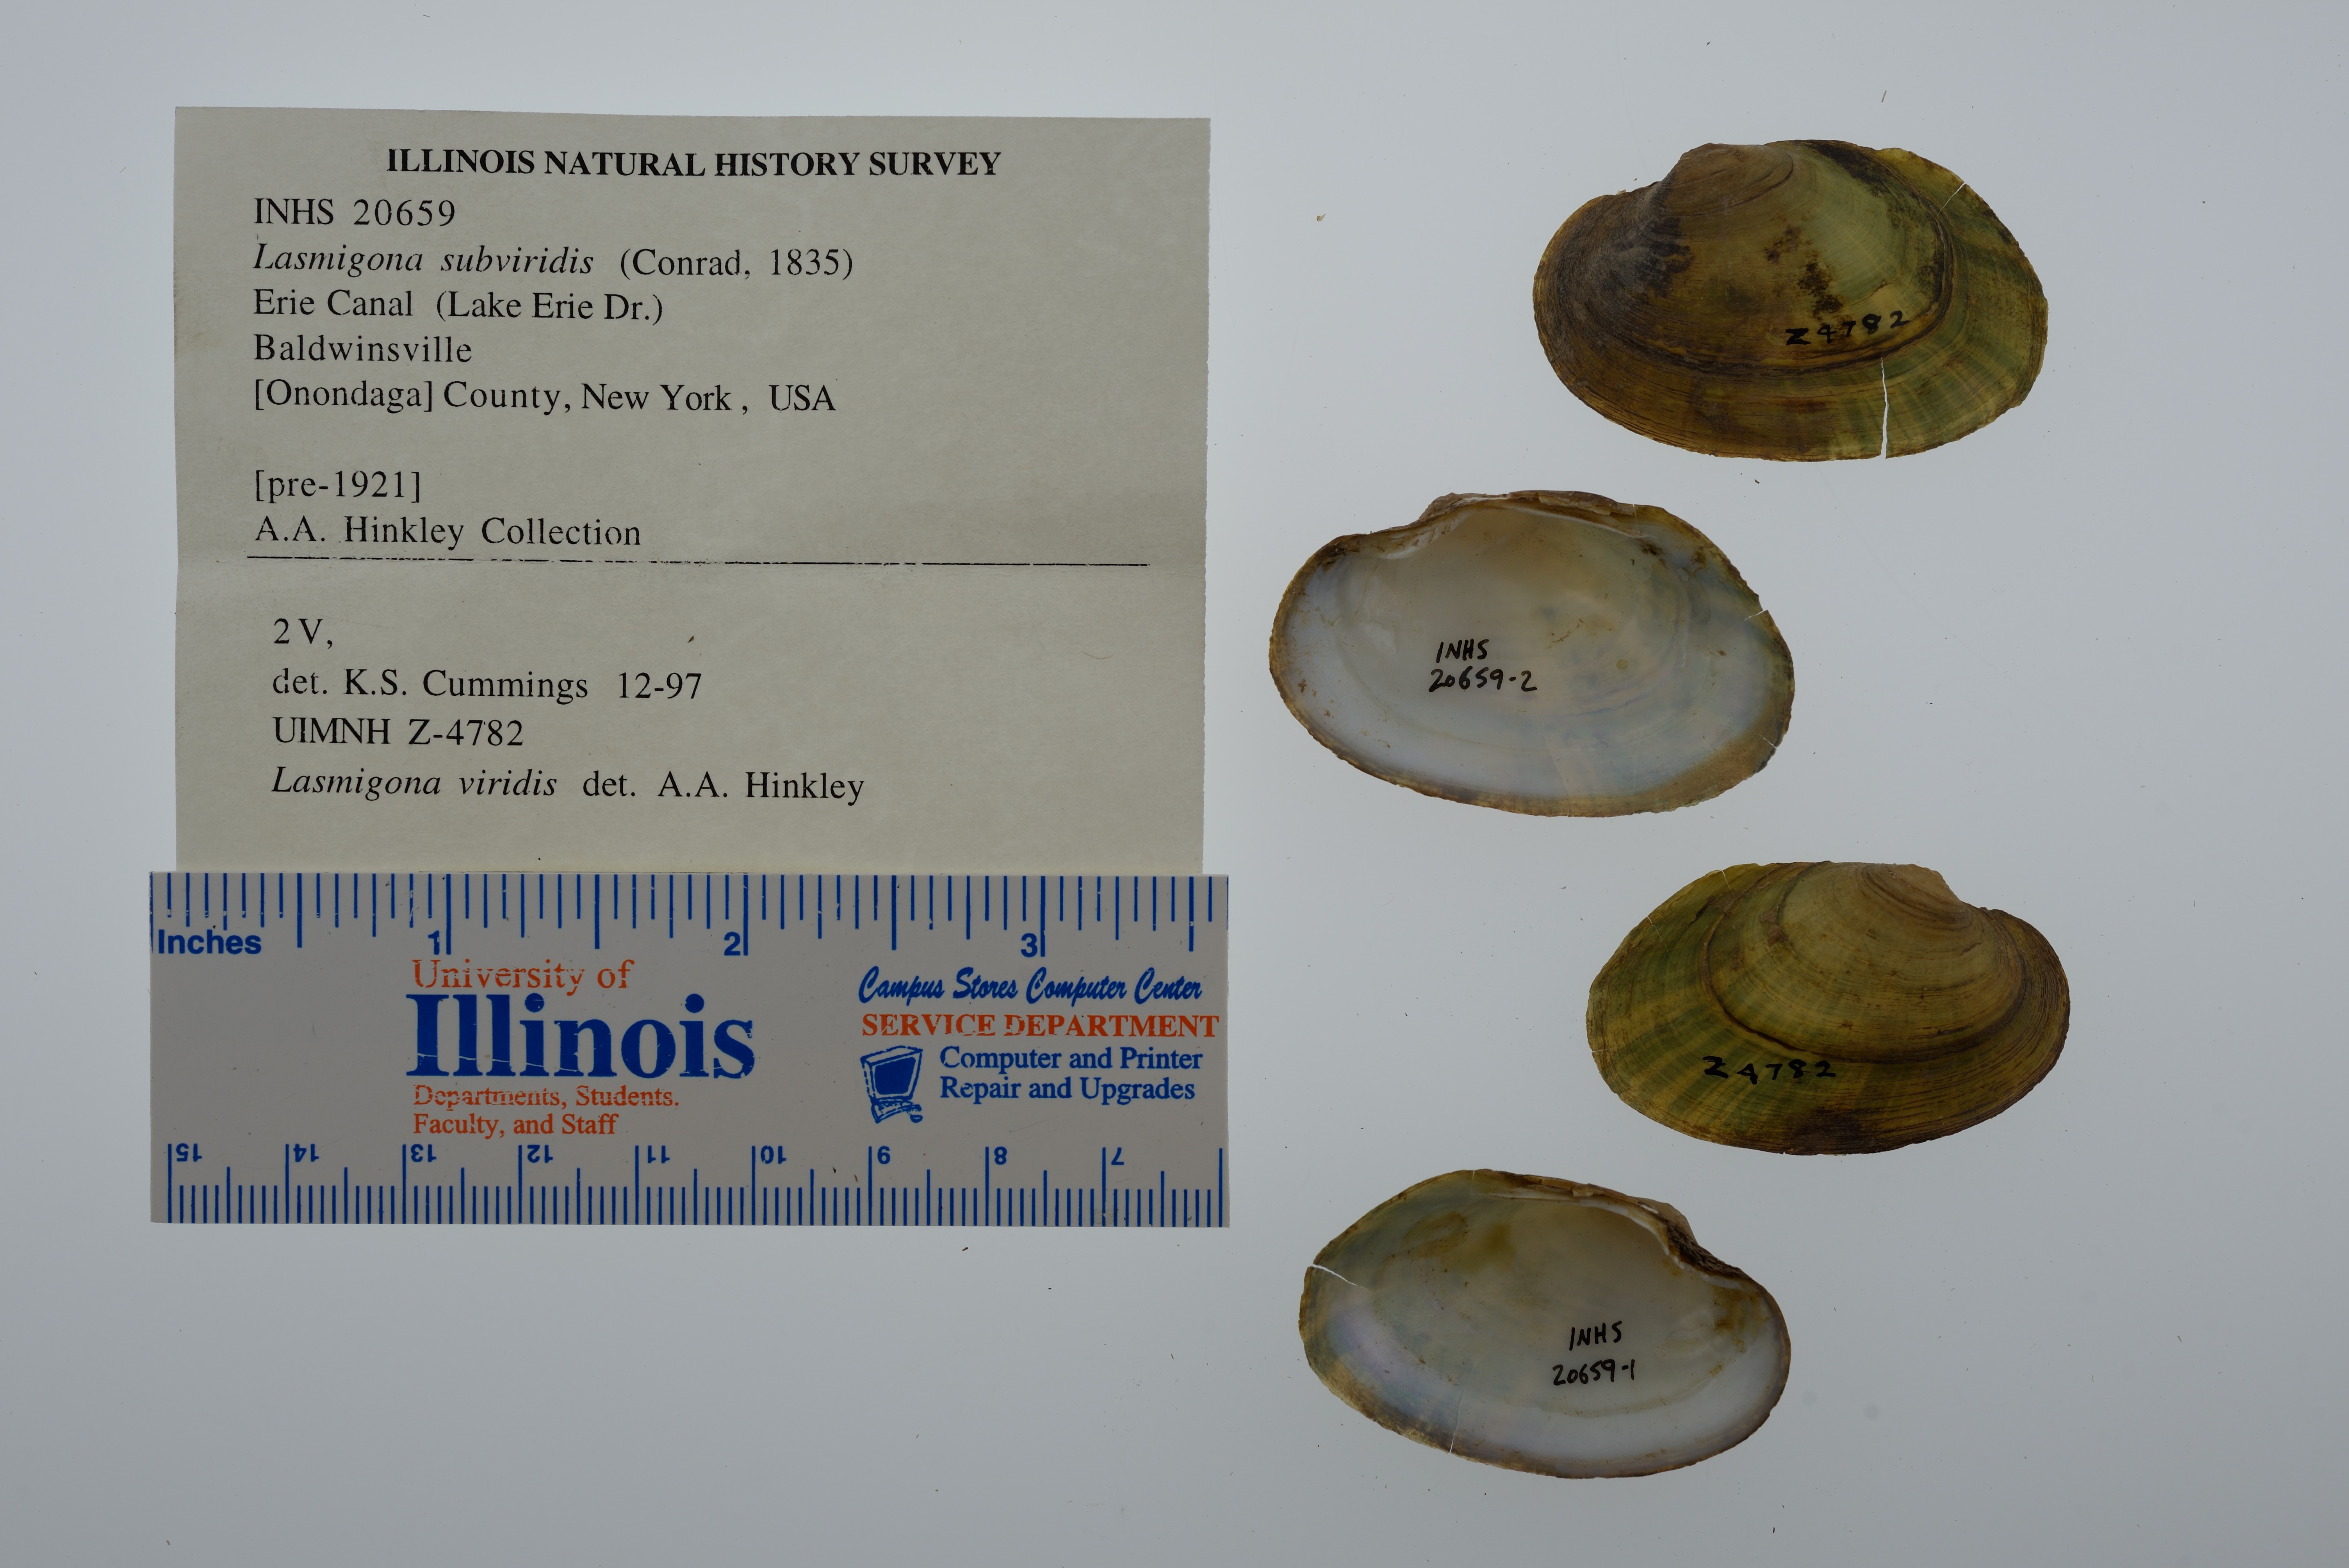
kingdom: Animalia
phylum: Mollusca
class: Bivalvia
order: Unionida
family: Unionidae
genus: Lasmigona
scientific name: Lasmigona subviridis
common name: Green floater
